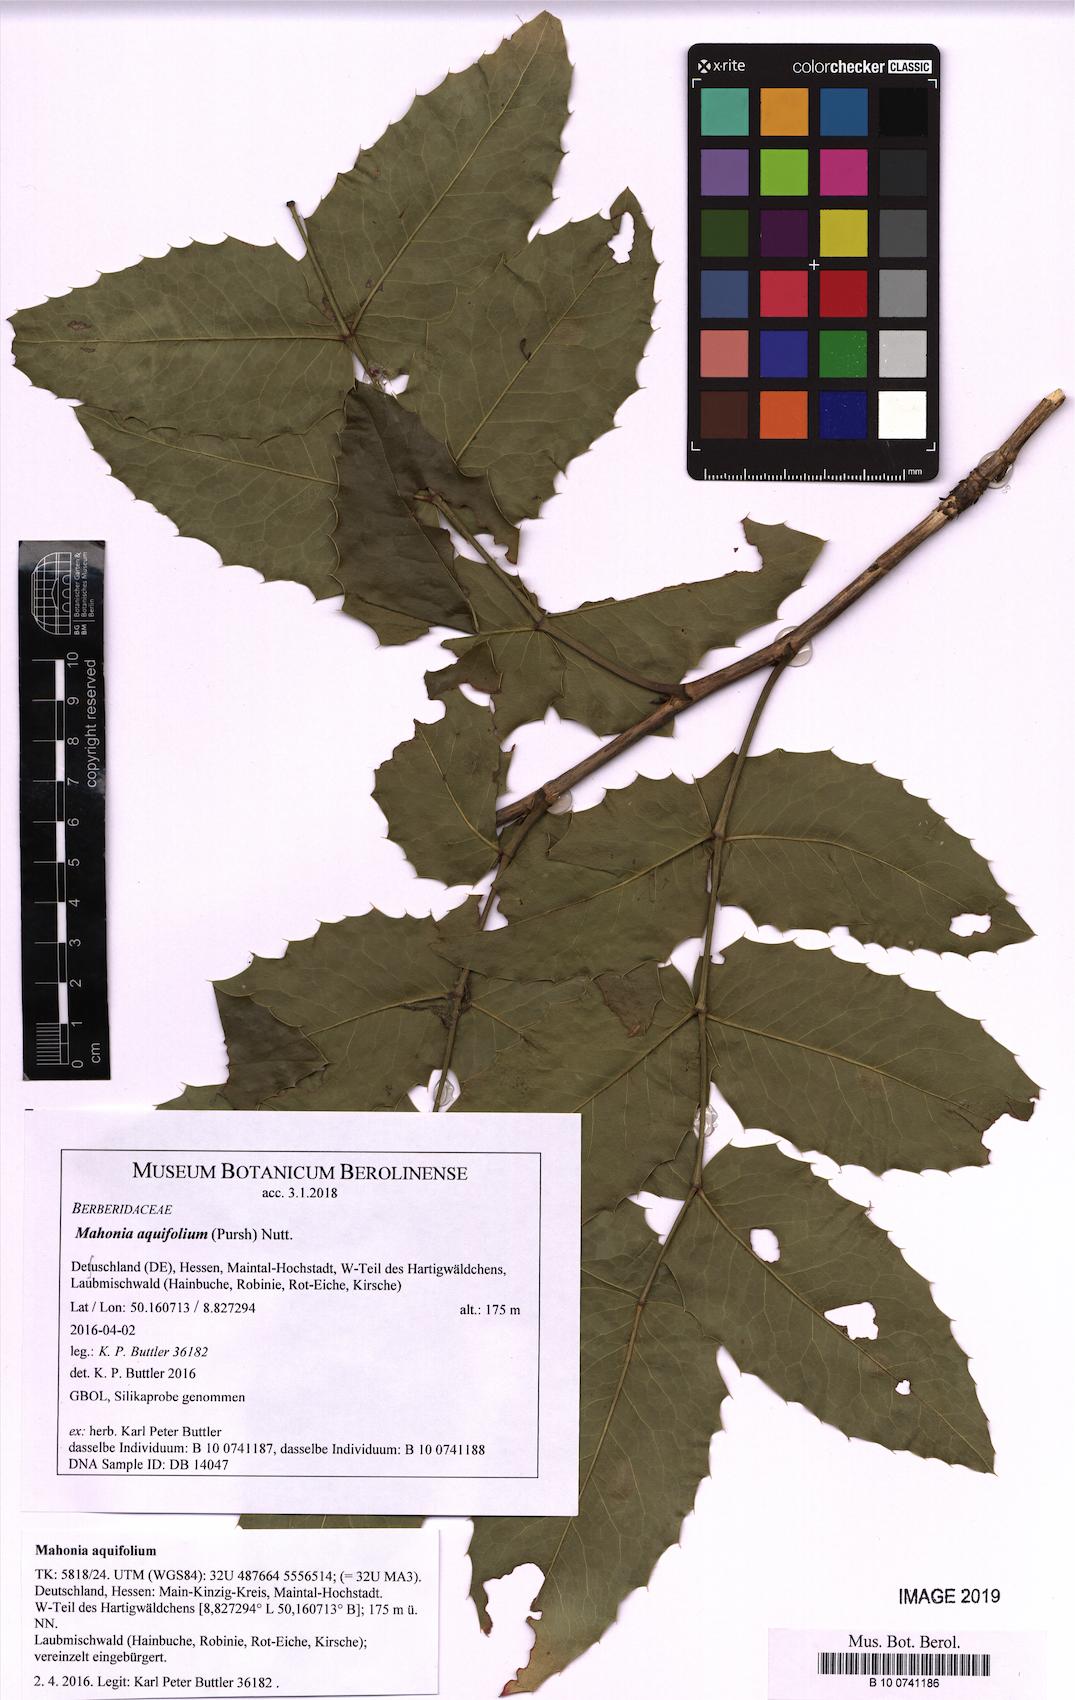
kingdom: Plantae
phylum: Tracheophyta
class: Magnoliopsida
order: Ranunculales
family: Berberidaceae
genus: Mahonia
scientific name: Mahonia aquifolium
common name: Oregon-grape
